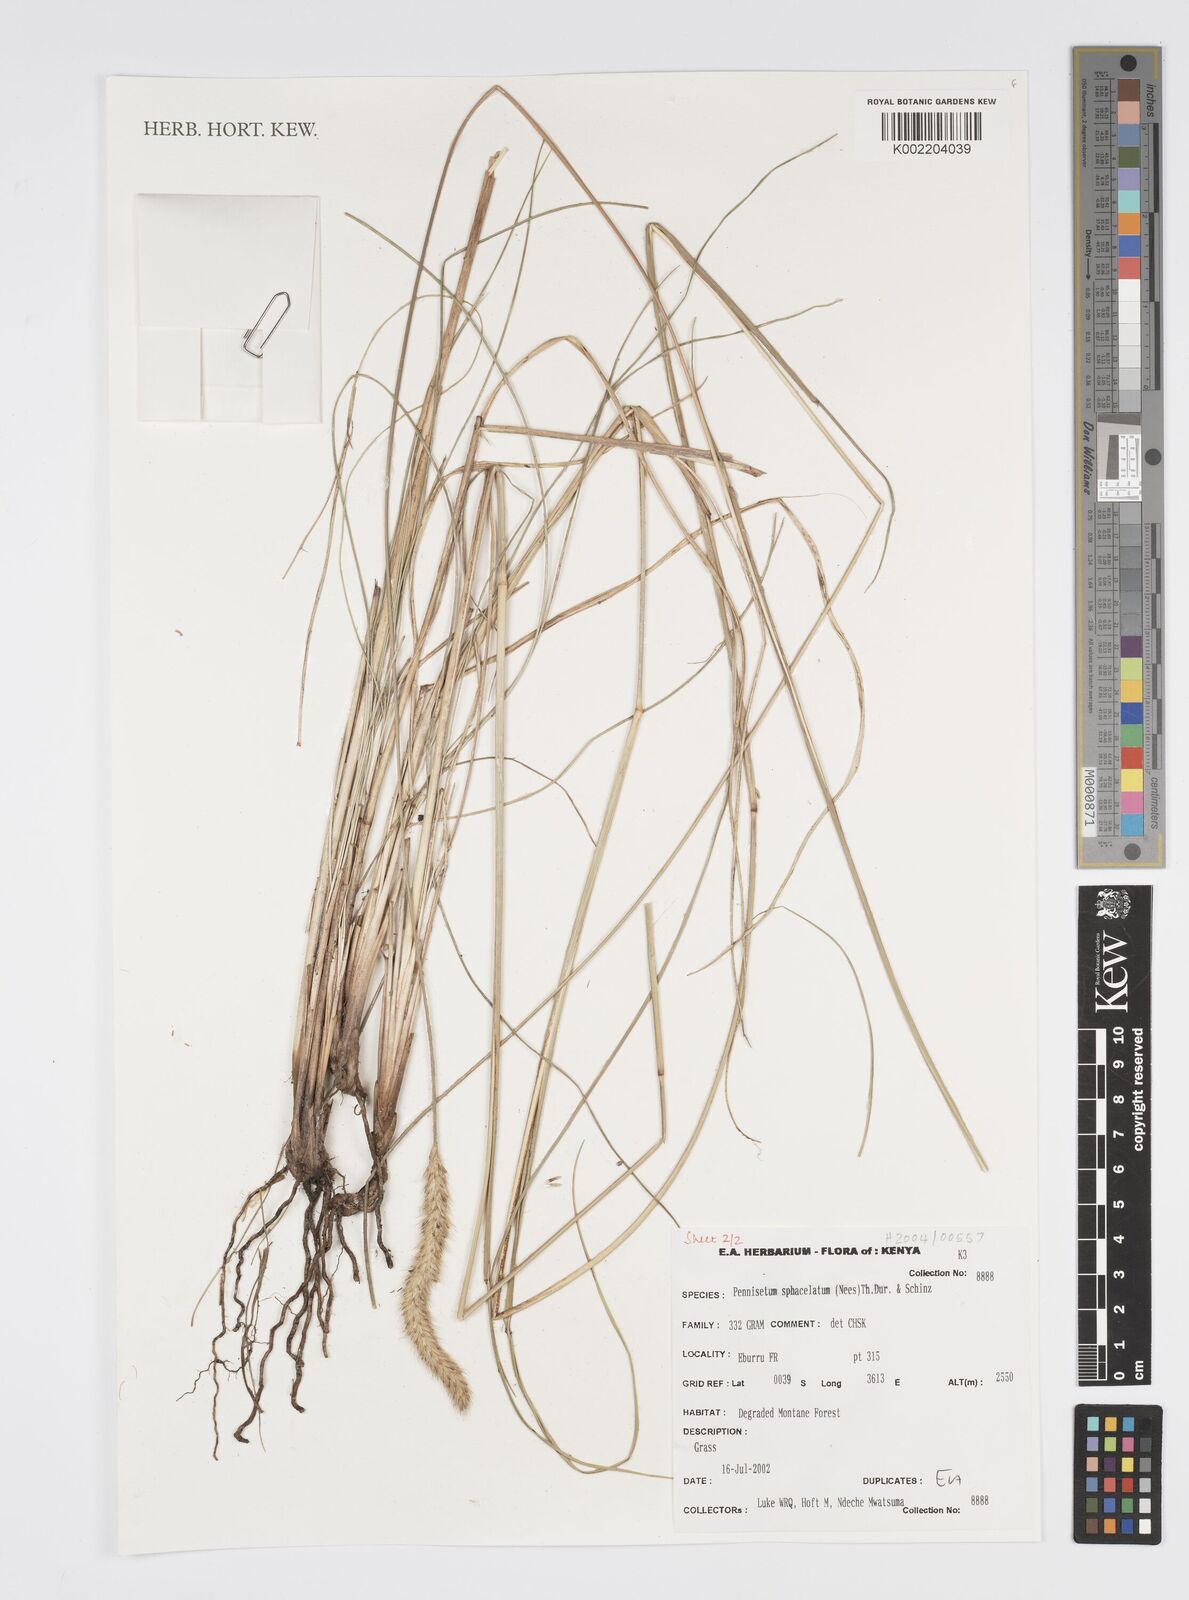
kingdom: Plantae
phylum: Tracheophyta
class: Liliopsida
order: Poales
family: Poaceae
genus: Cenchrus
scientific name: Cenchrus sphacelatus
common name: Bulgras
